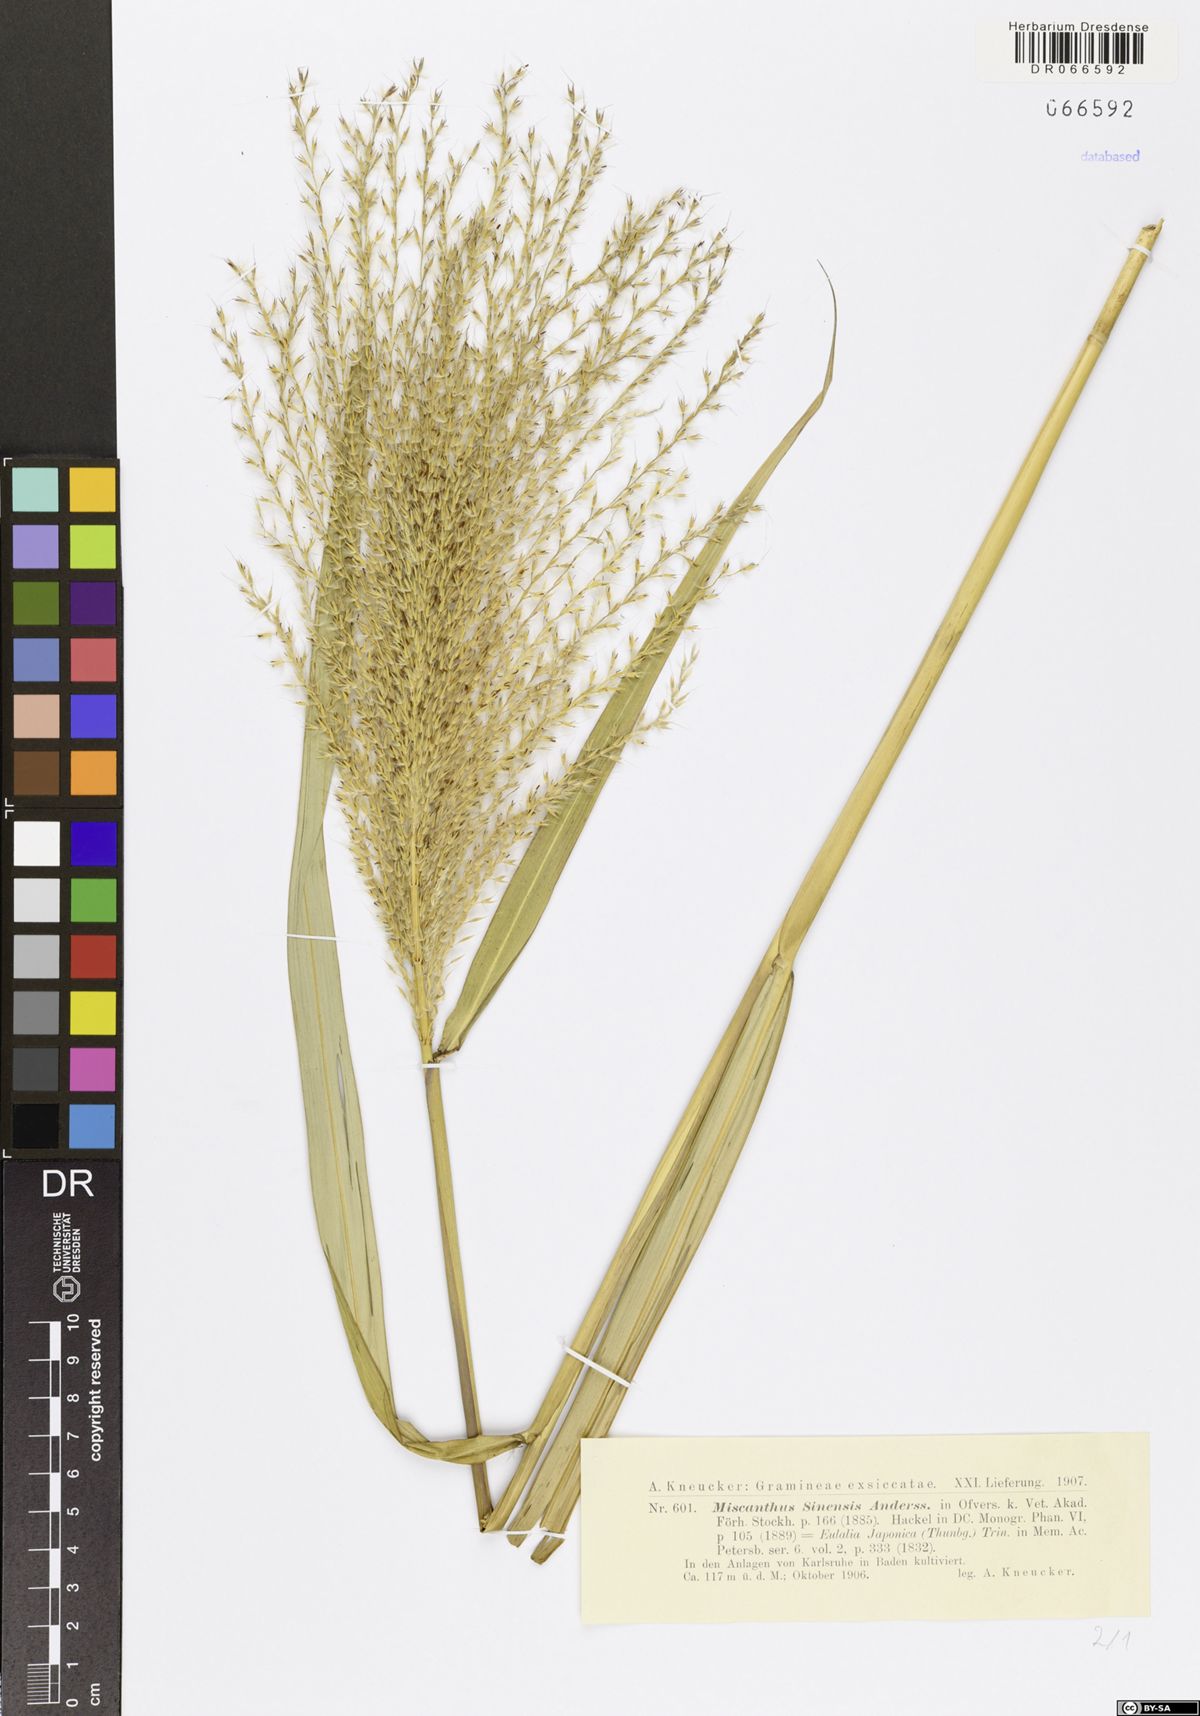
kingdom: Plantae
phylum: Tracheophyta
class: Liliopsida
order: Poales
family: Poaceae
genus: Miscanthus
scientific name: Miscanthus sinensis
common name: Chinese silvergrass
